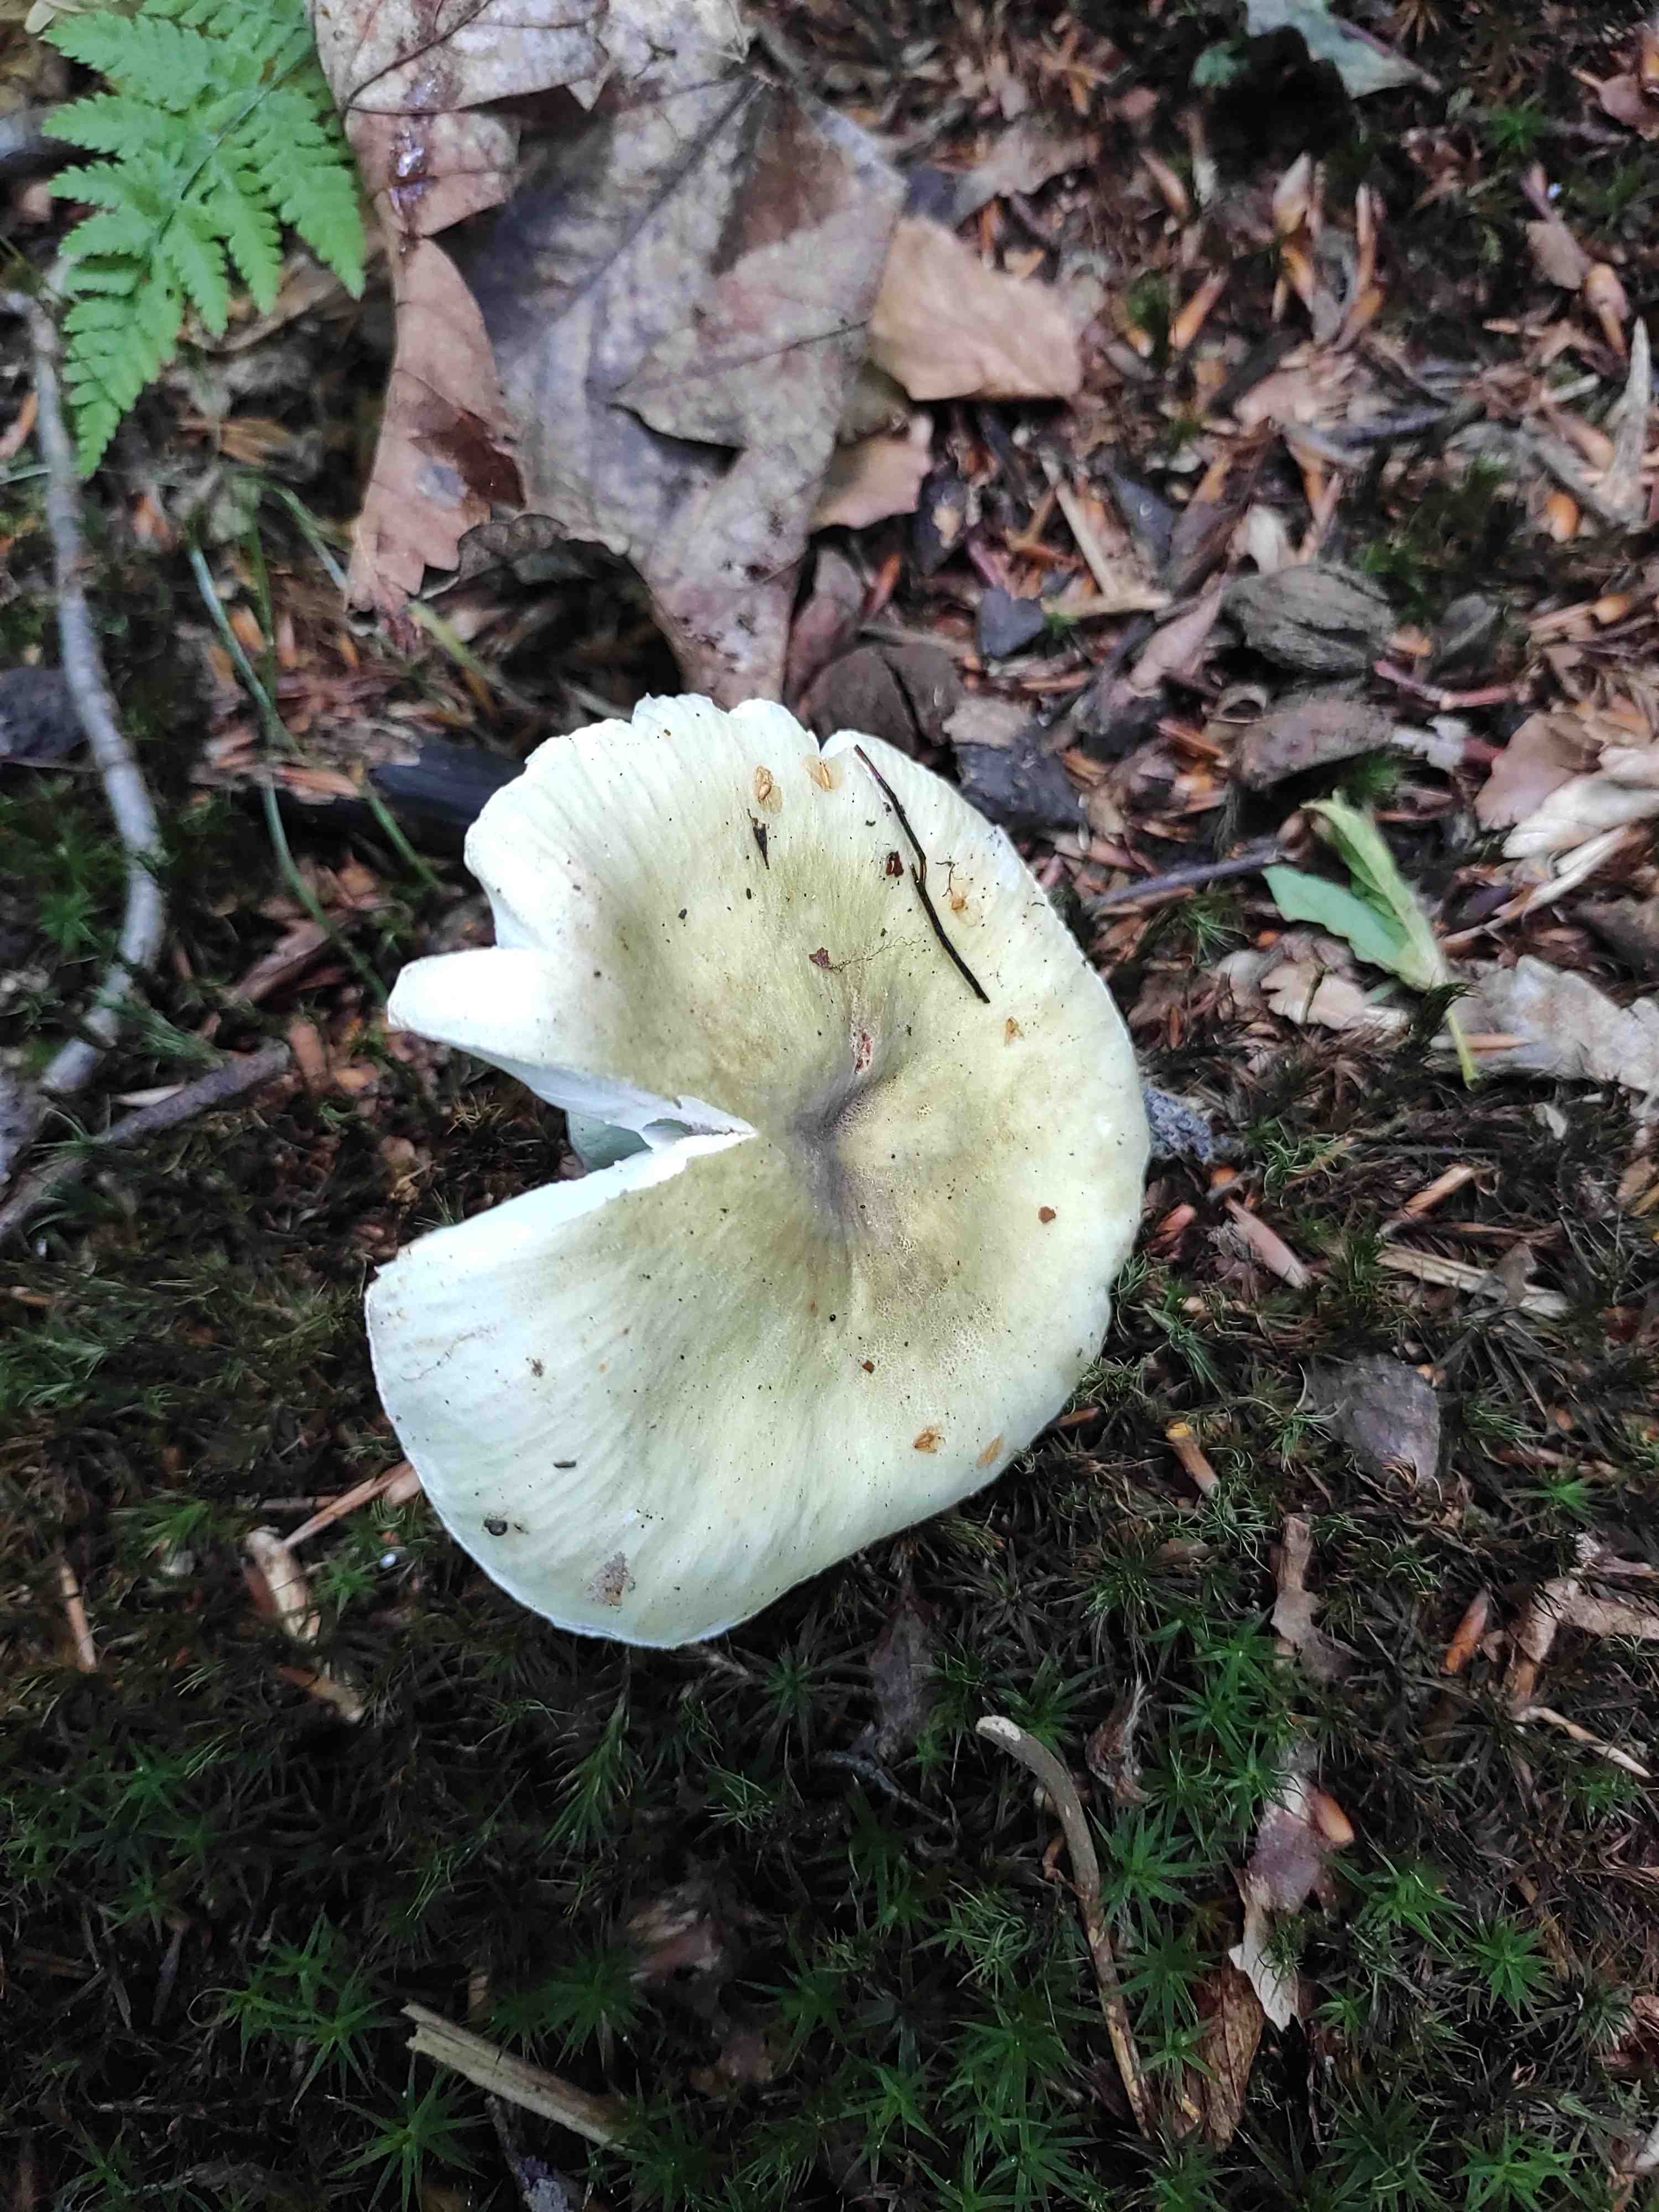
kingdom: Fungi
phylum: Basidiomycota
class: Agaricomycetes
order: Russulales
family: Russulaceae
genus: Russula
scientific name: Russula violeipes
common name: ferskengul skørhat
